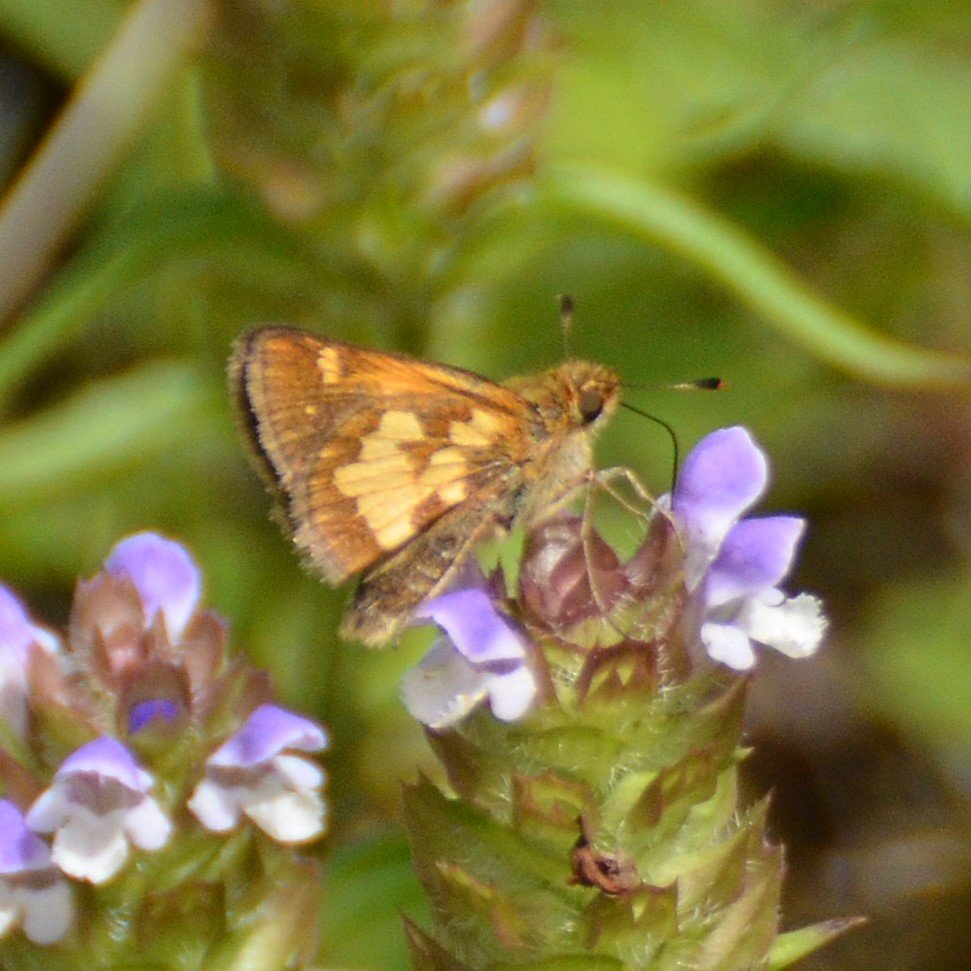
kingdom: Animalia
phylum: Arthropoda
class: Insecta
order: Lepidoptera
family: Hesperiidae
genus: Polites
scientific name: Polites coras
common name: Peck's Skipper
